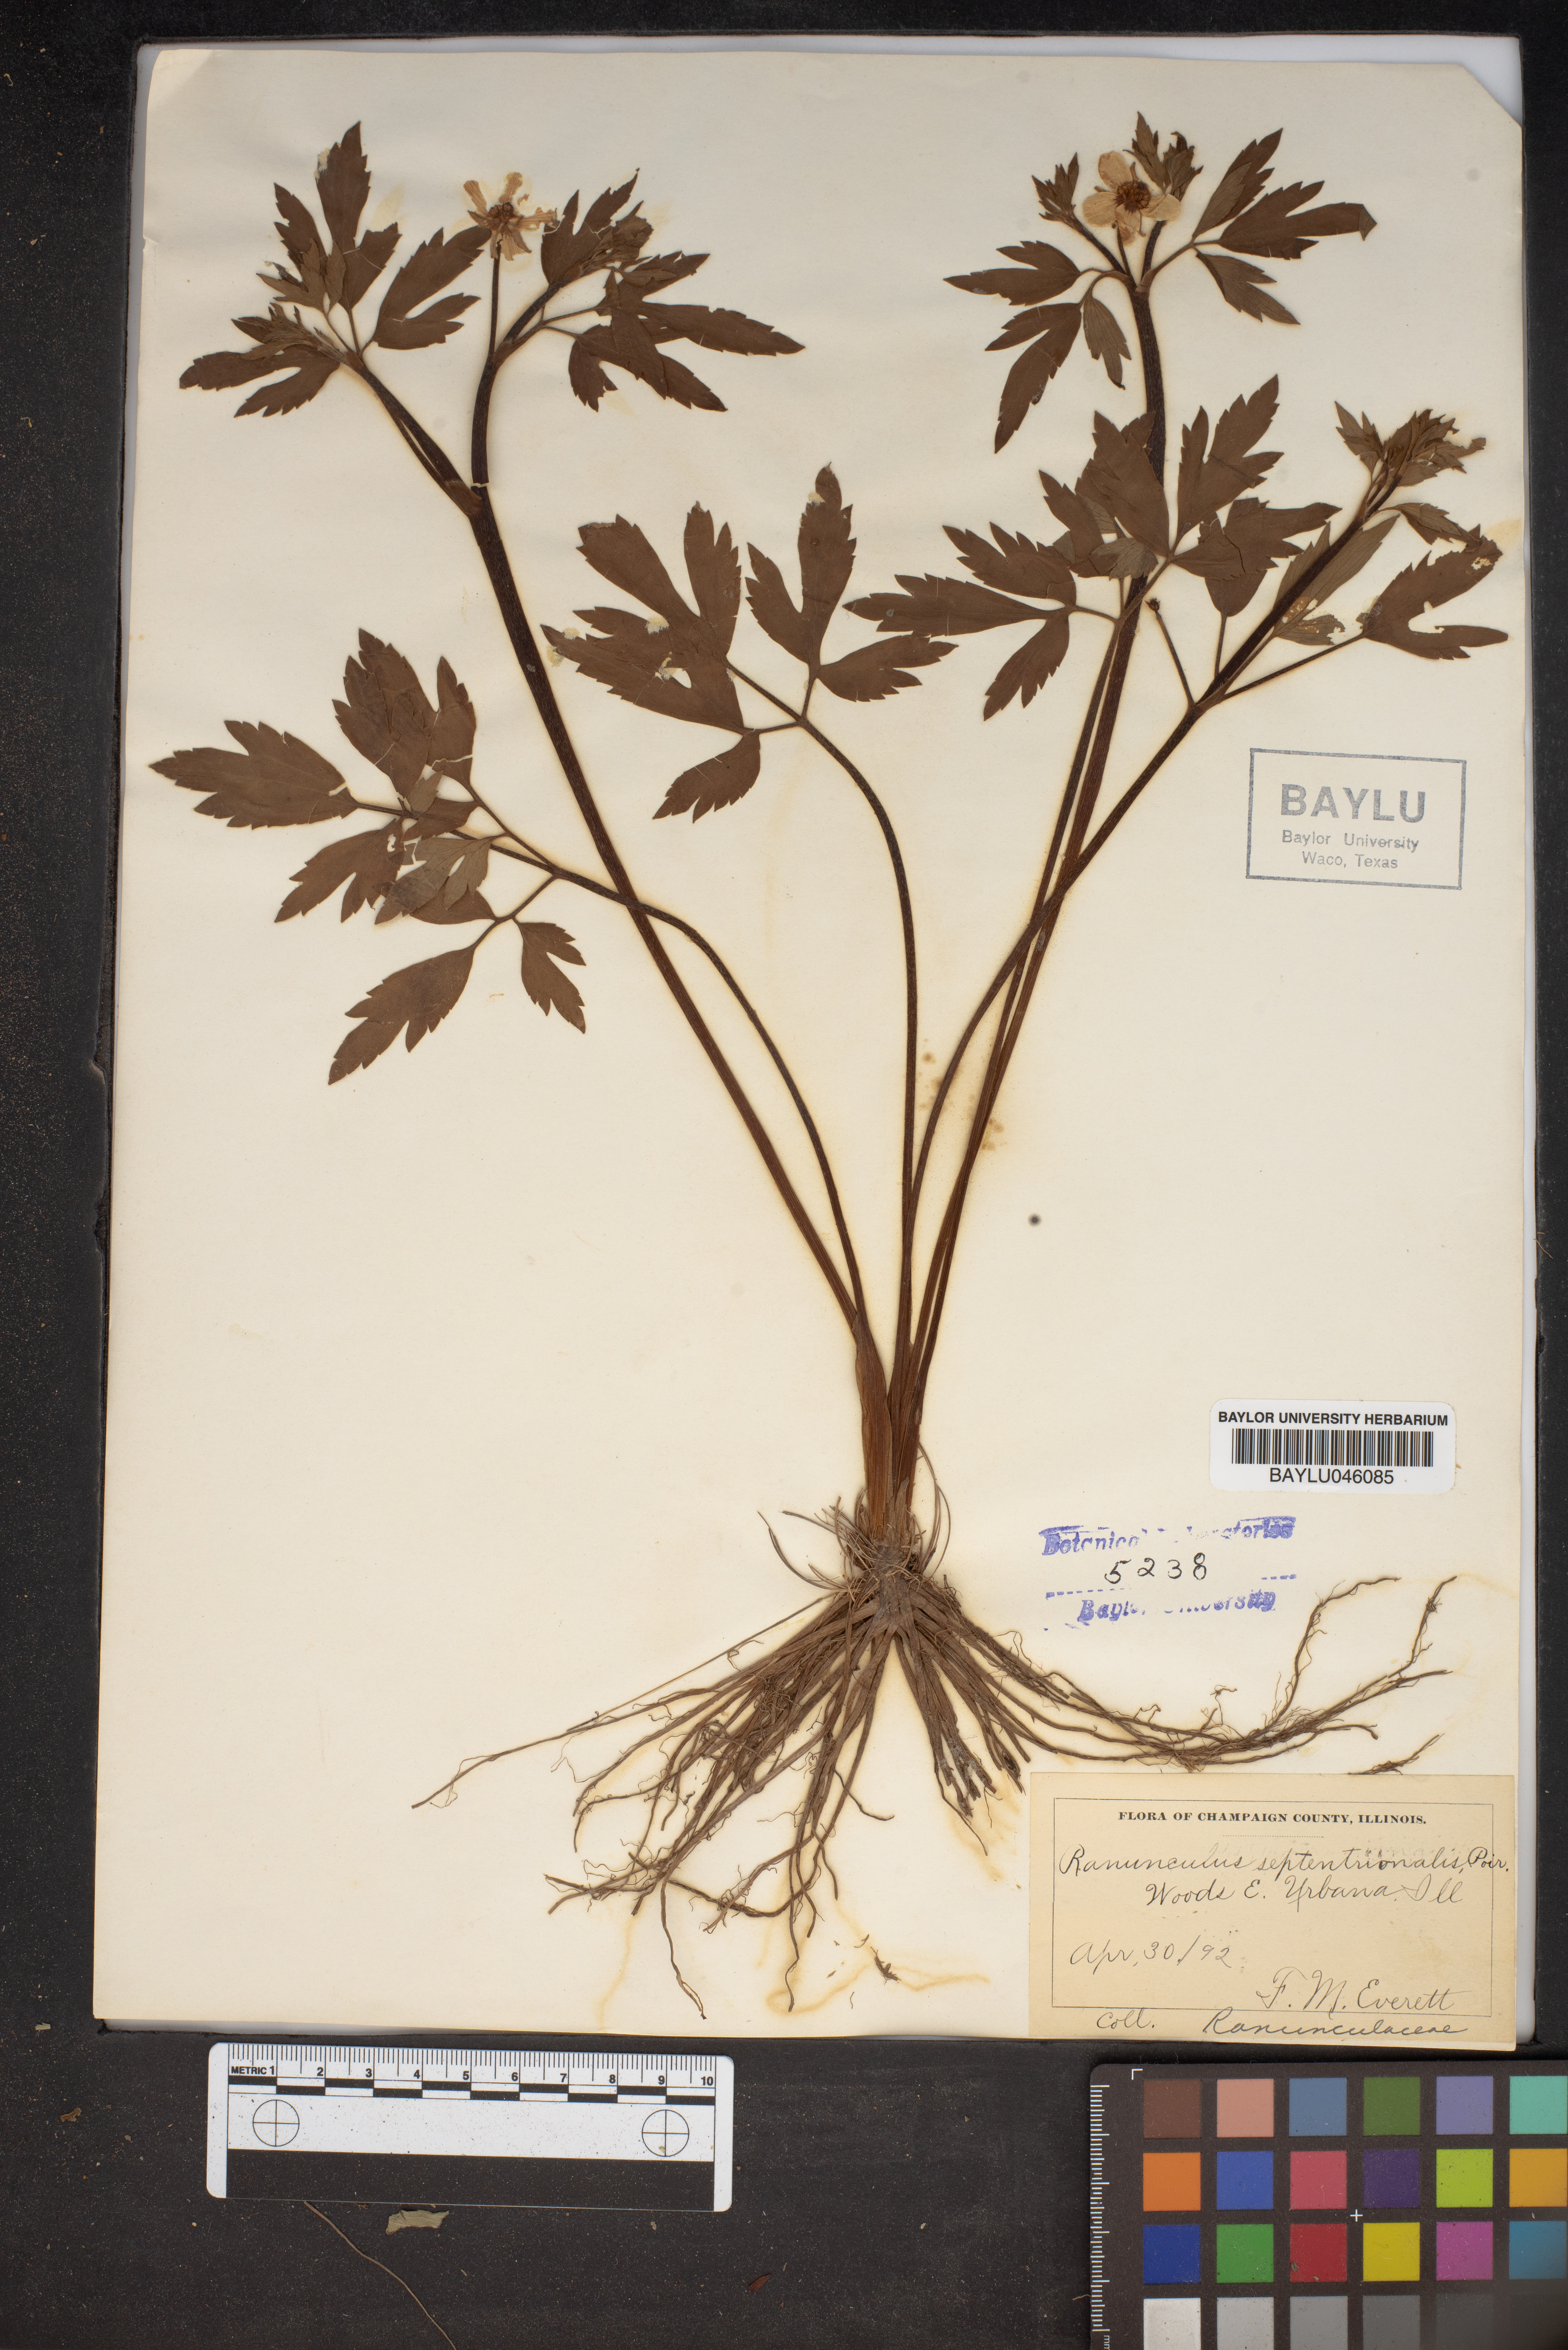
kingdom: Plantae
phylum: Tracheophyta
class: Magnoliopsida
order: Ranunculales
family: Ranunculaceae
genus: Ranunculus
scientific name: Ranunculus hispidus
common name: Bristly buttercup
